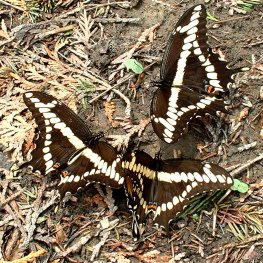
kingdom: Animalia
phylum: Arthropoda
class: Insecta
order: Lepidoptera
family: Papilionidae
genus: Papilio
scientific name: Papilio cresphontes
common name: Eastern Giant Swallowtail
